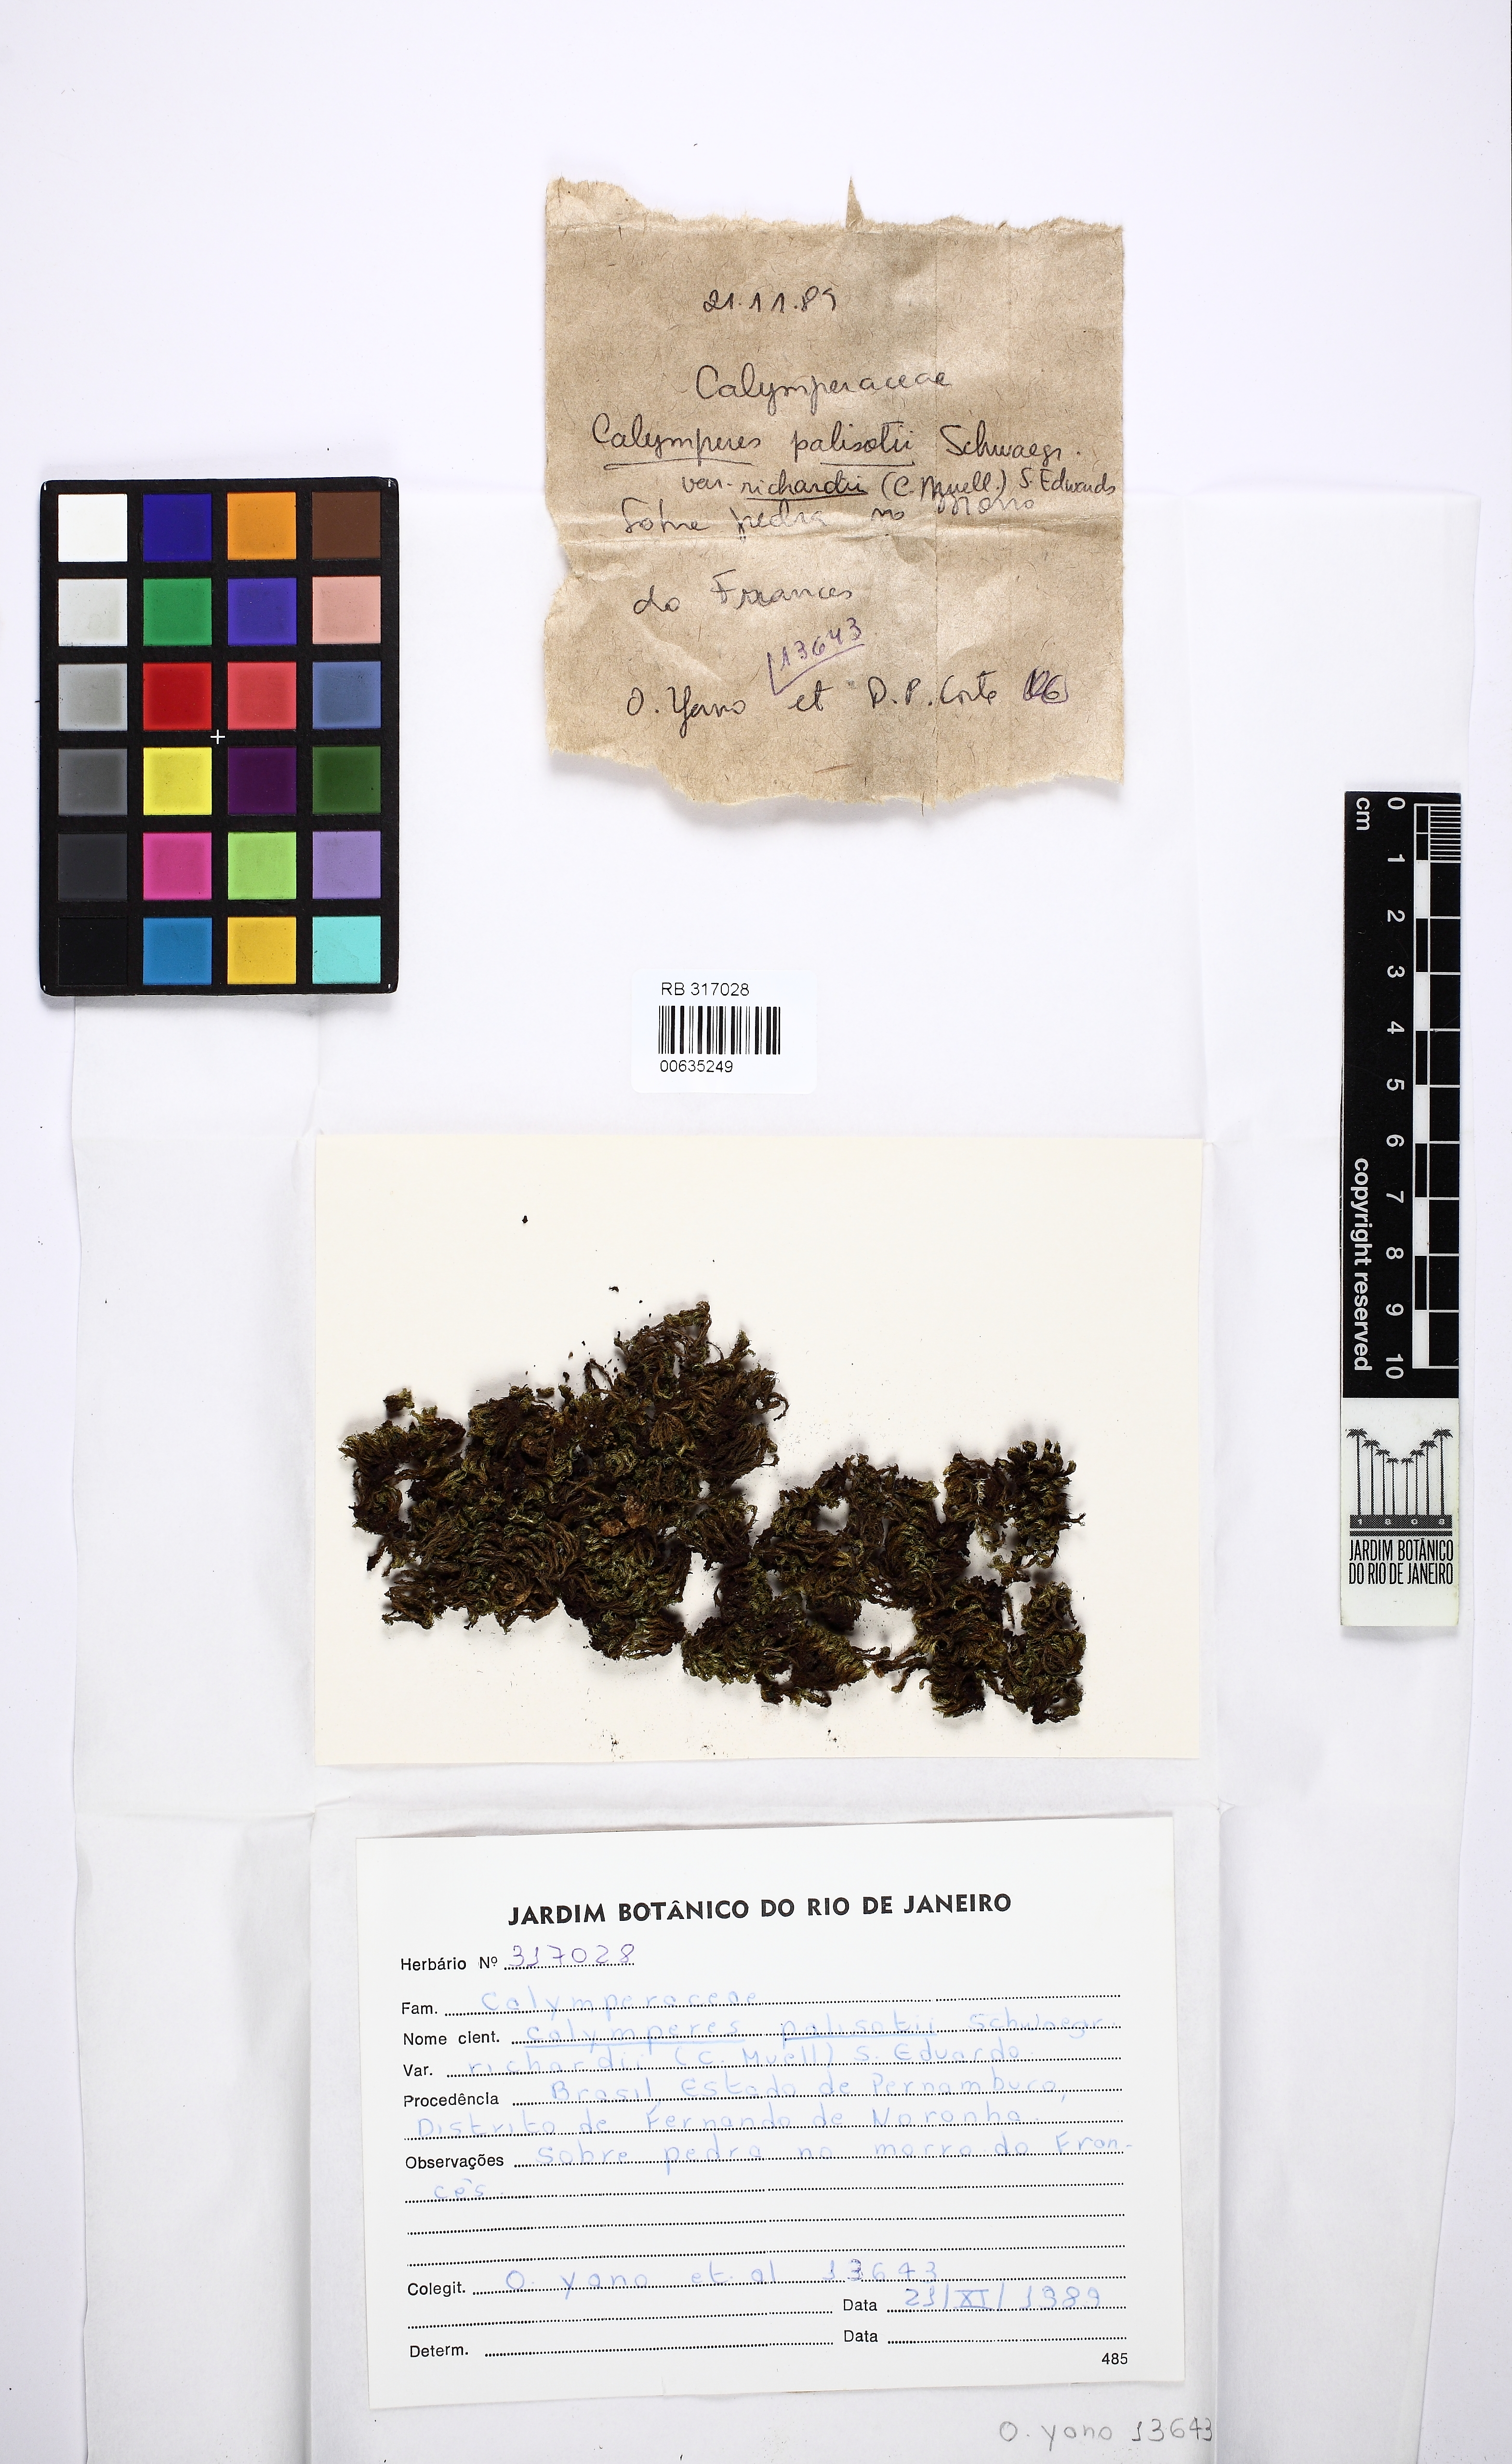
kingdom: Plantae
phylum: Bryophyta
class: Bryopsida
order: Dicranales
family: Calymperaceae
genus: Calymperes
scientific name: Calymperes palisotii
